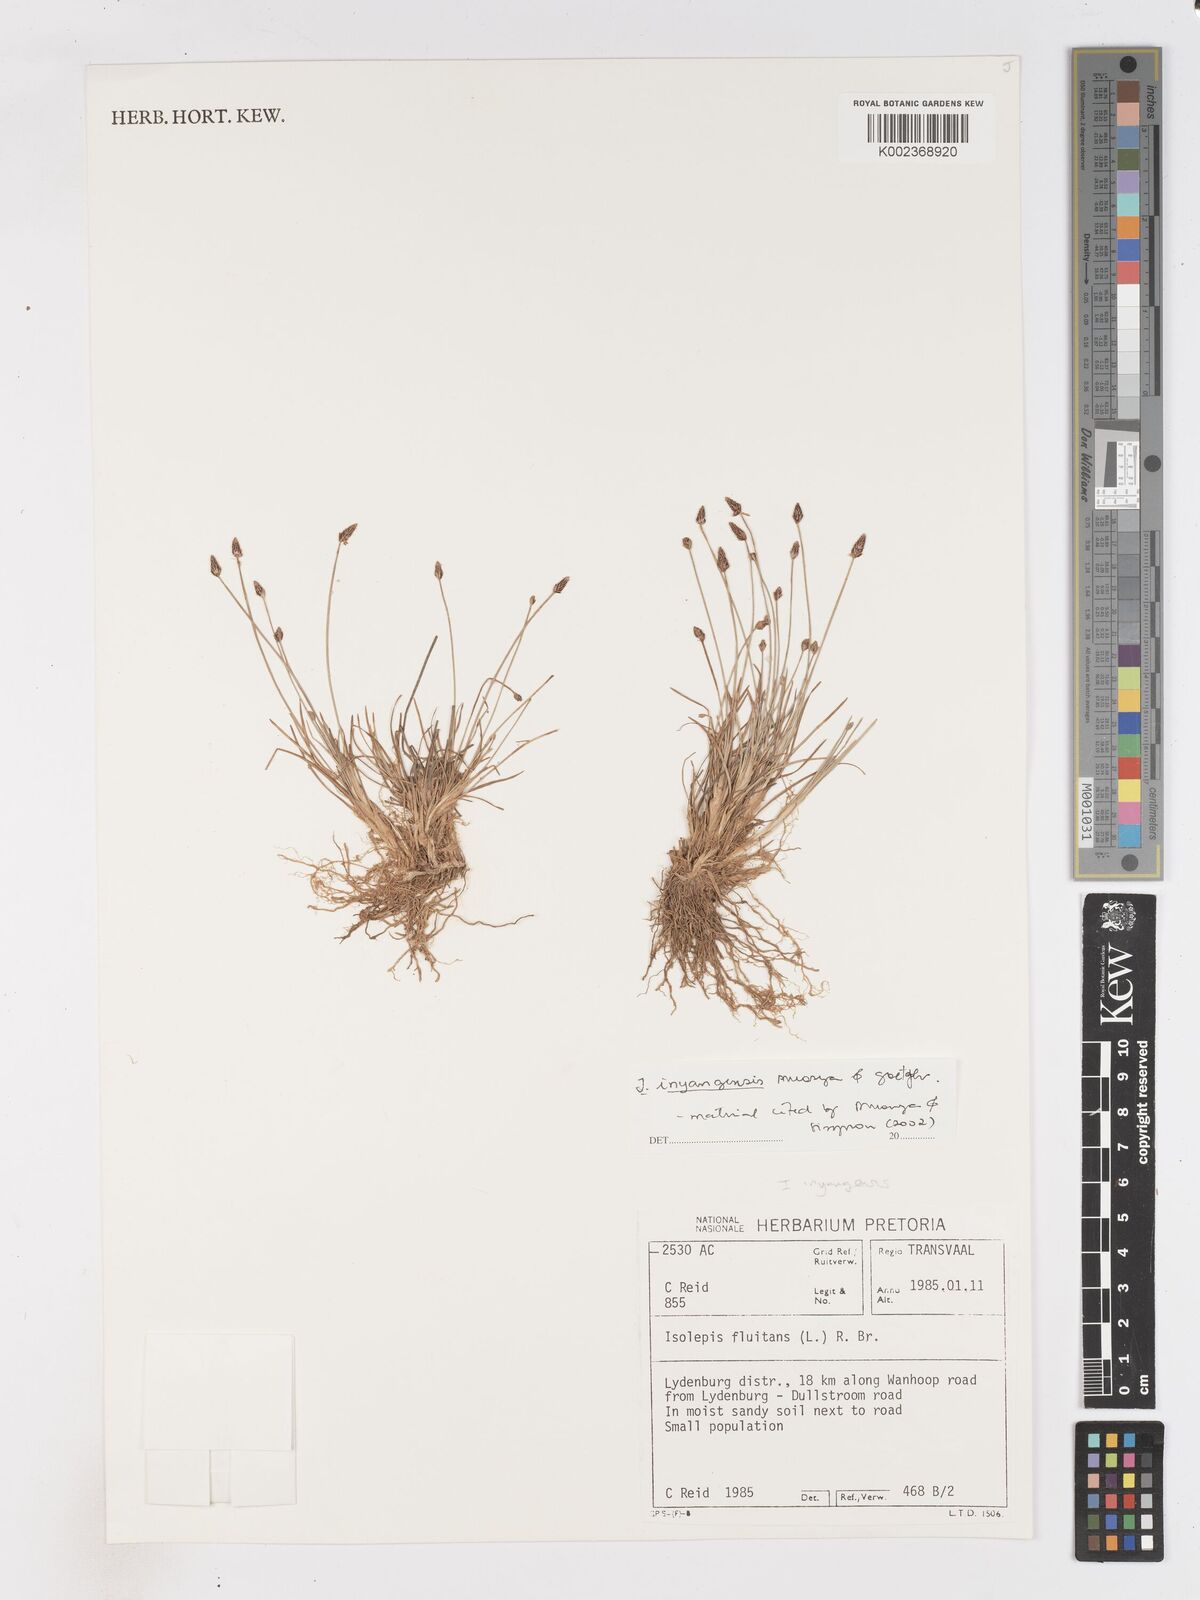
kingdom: Plantae
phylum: Tracheophyta
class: Liliopsida
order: Poales
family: Cyperaceae
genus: Isolepis
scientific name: Isolepis fluitans
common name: Floating club-rush
